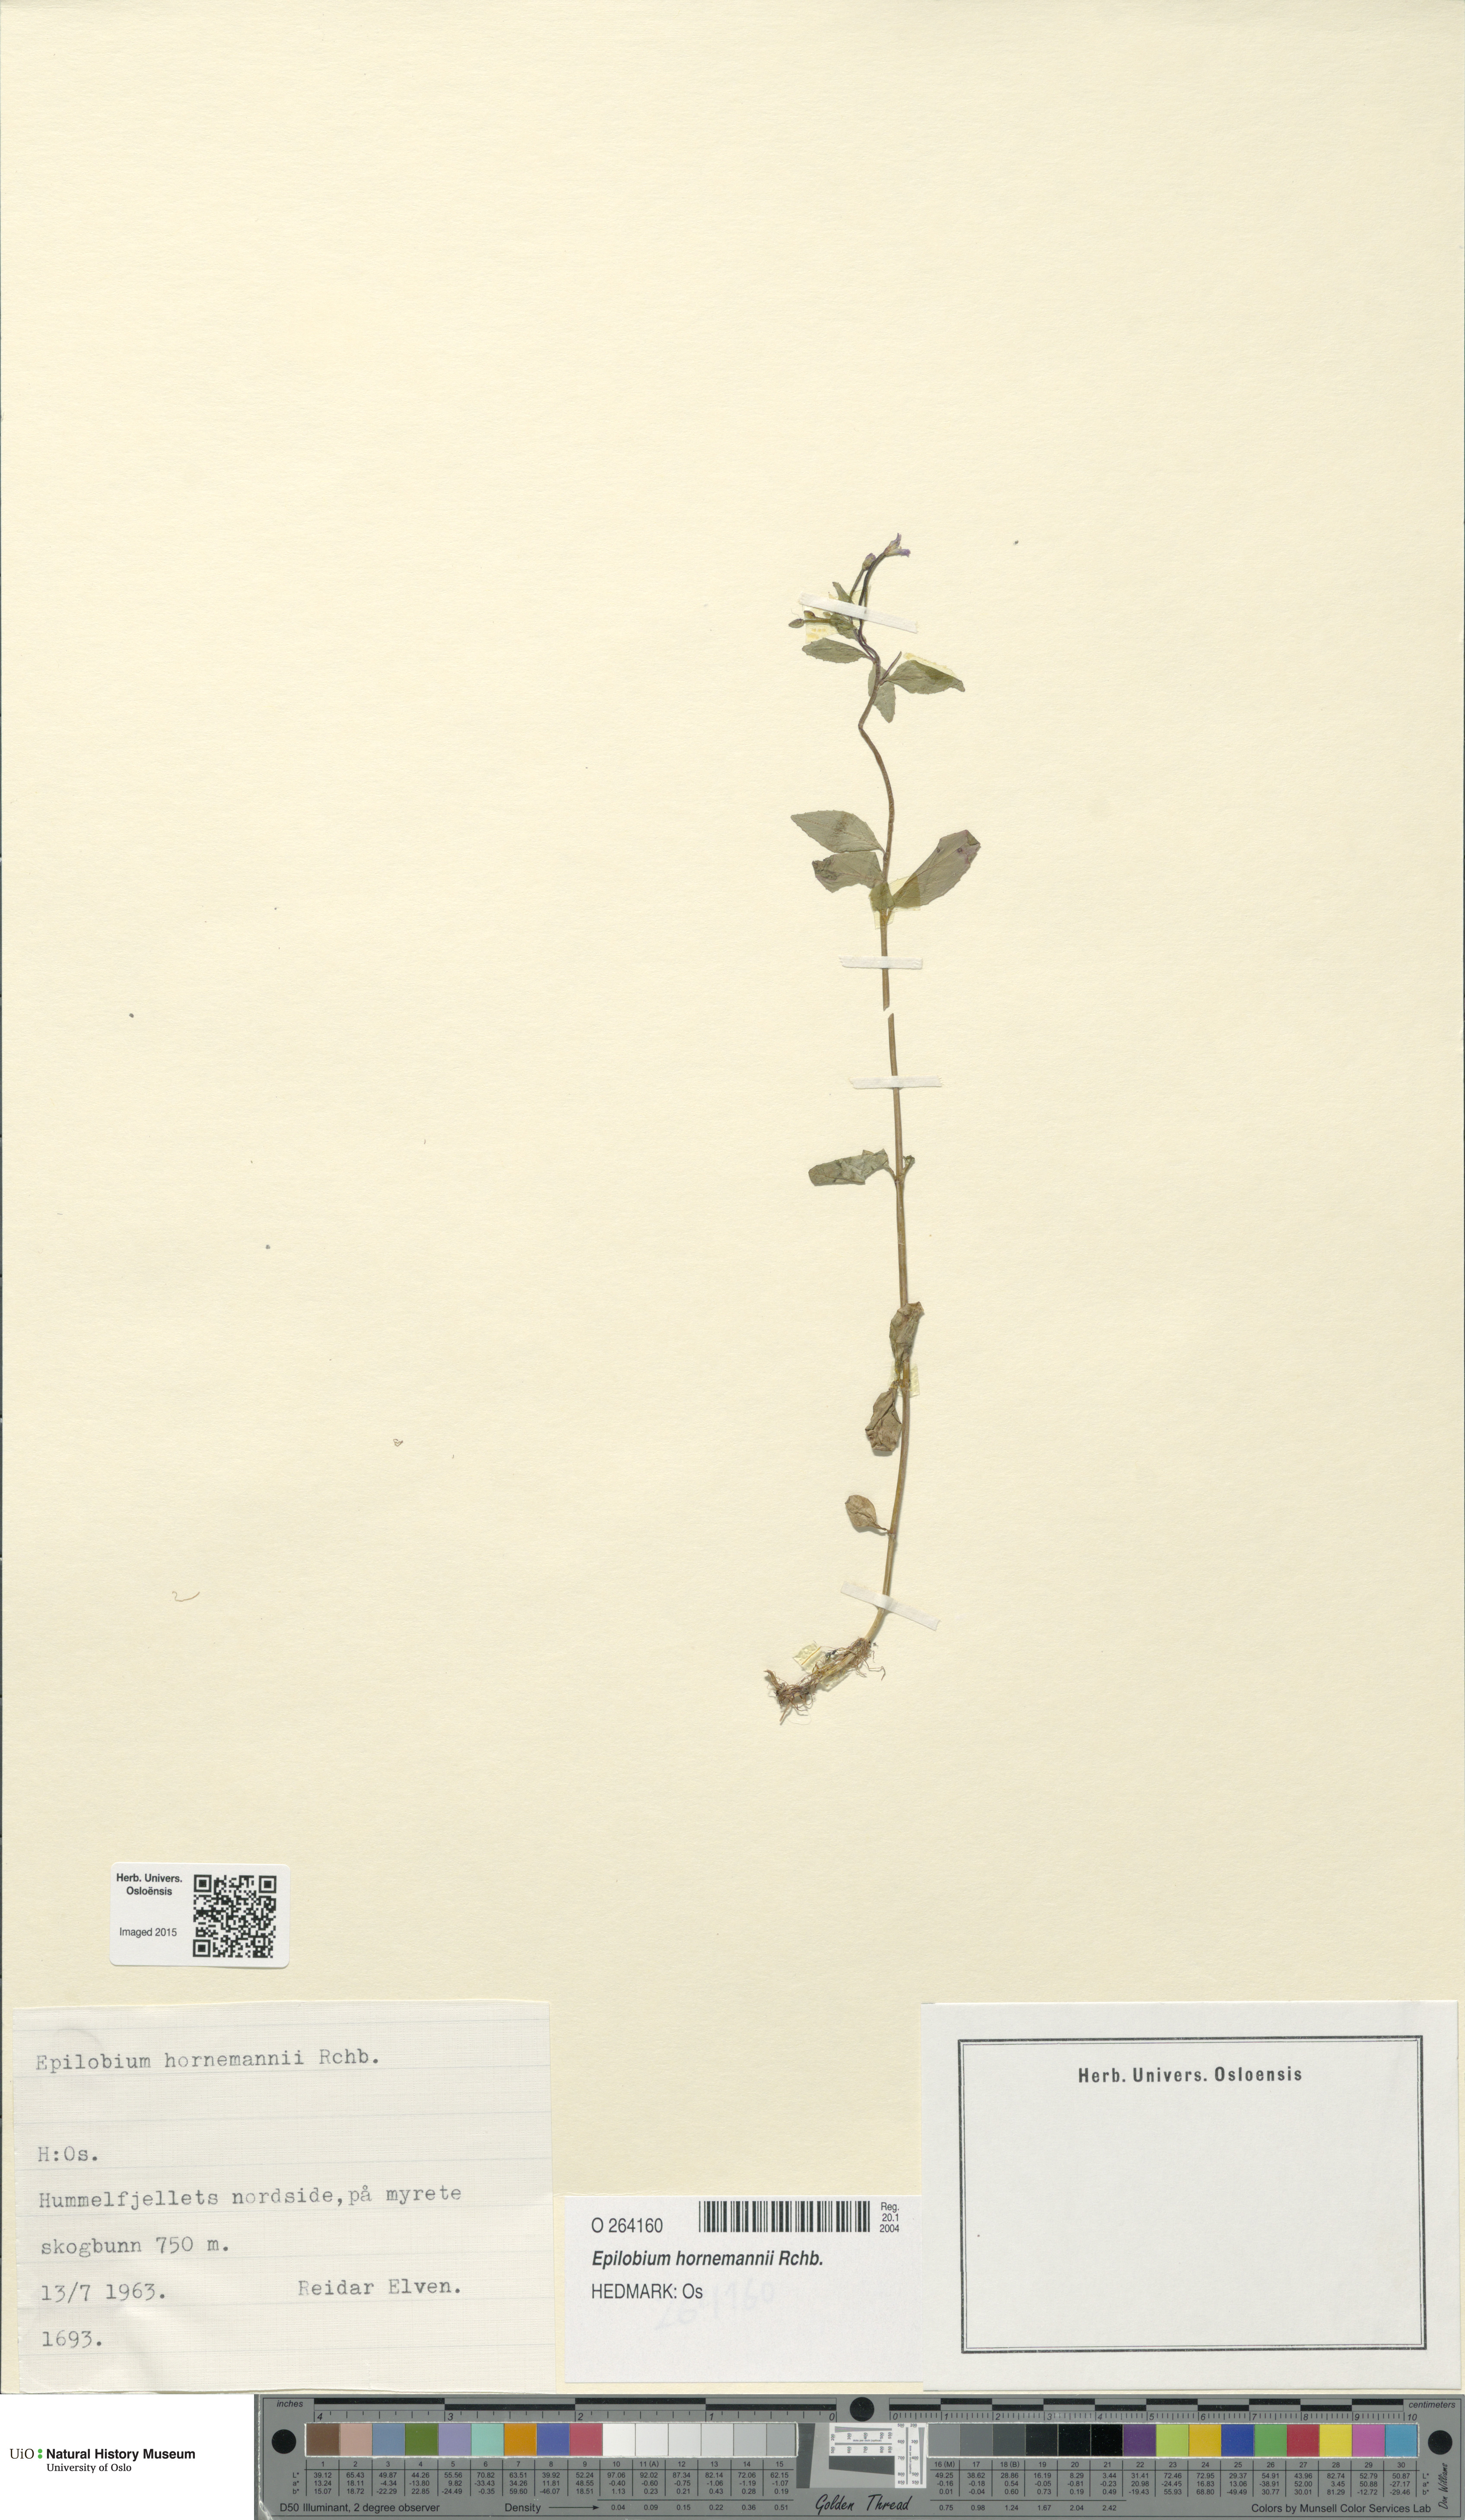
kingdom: Plantae
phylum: Tracheophyta
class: Magnoliopsida
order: Myrtales
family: Onagraceae
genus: Epilobium
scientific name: Epilobium hornemannii
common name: Hornemann's willowherb
